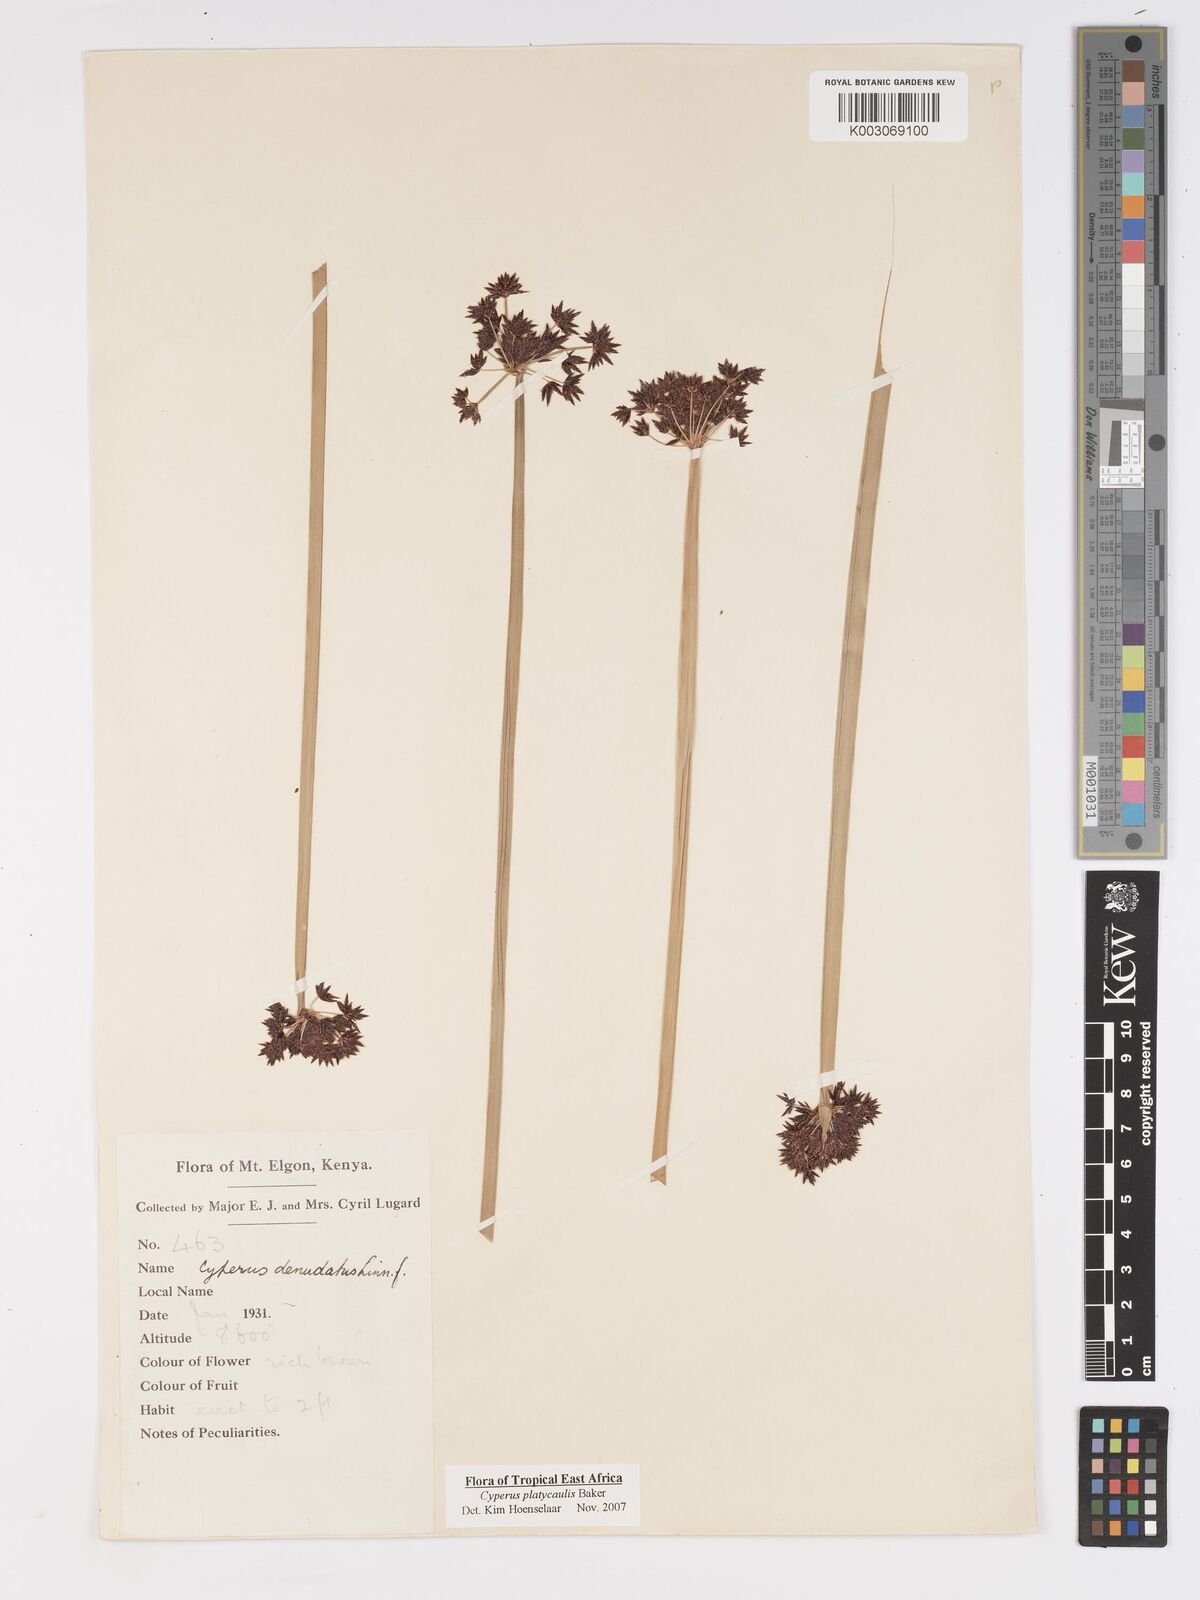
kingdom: Plantae
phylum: Tracheophyta
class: Liliopsida
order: Poales
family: Cyperaceae
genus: Cyperus
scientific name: Cyperus platycaulis
